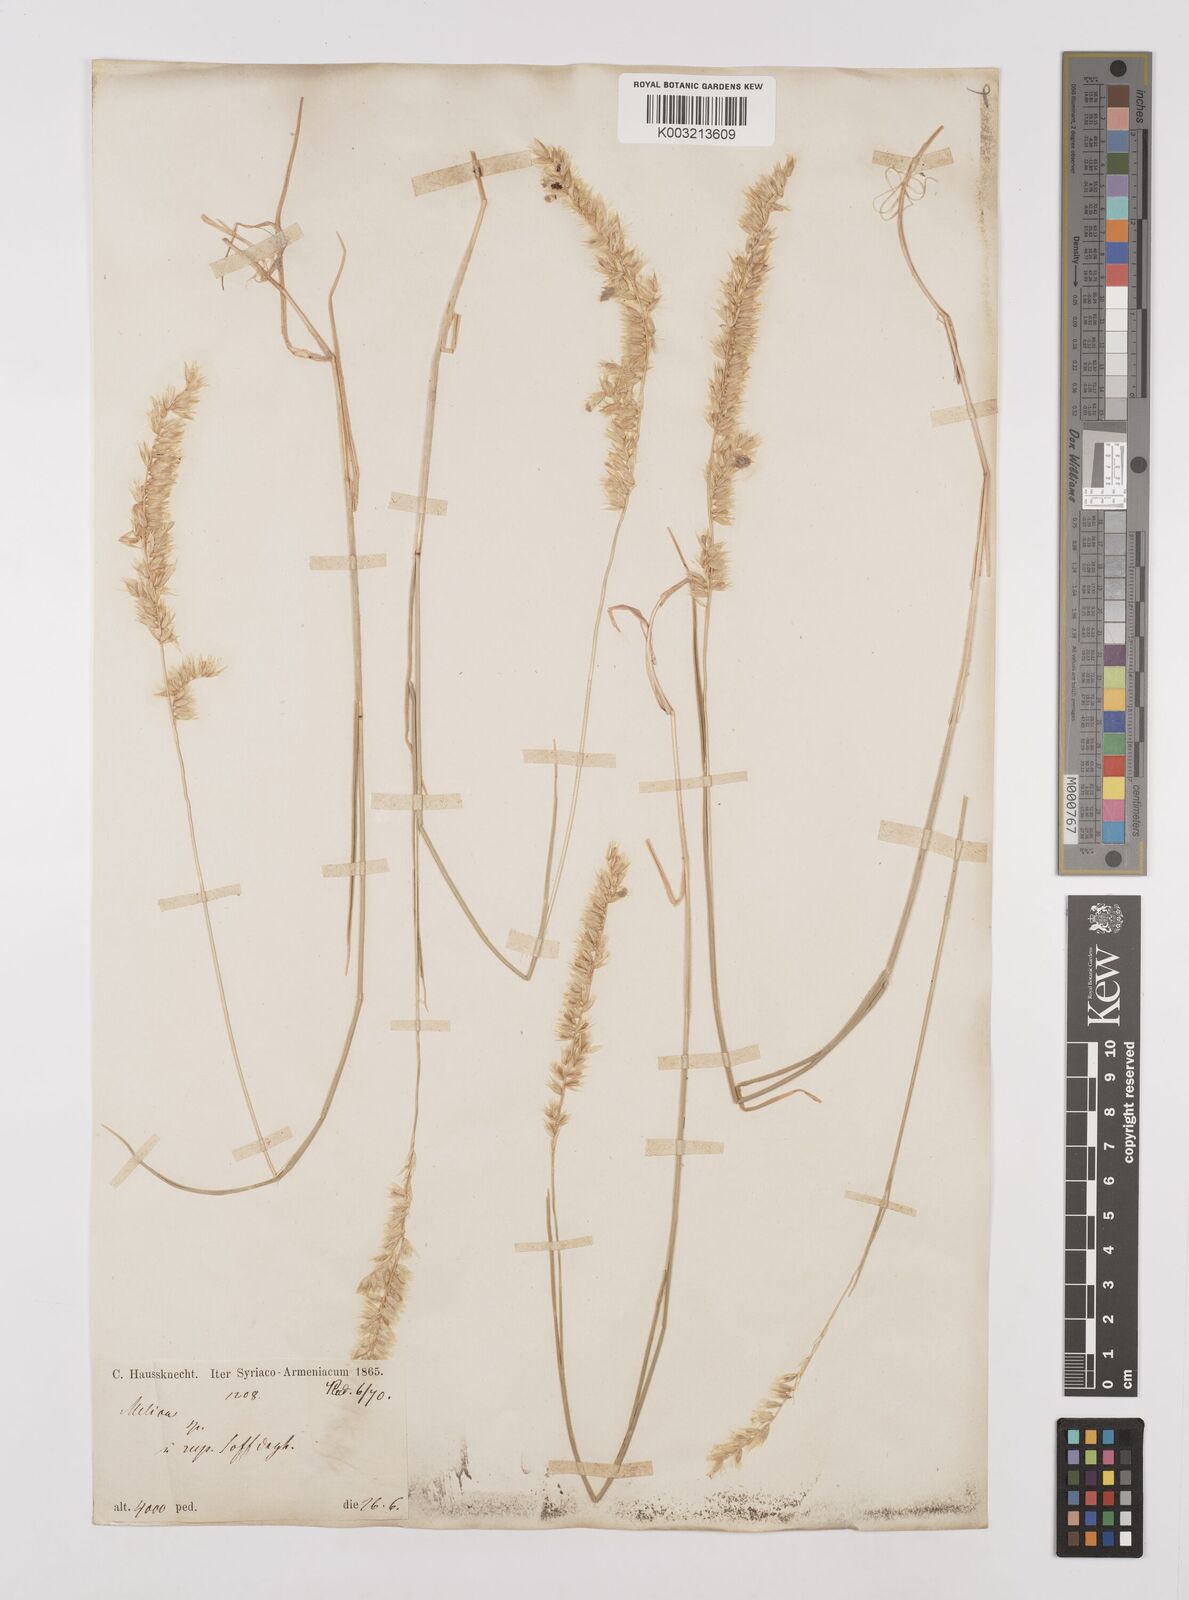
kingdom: Plantae
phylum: Tracheophyta
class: Liliopsida
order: Poales
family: Poaceae
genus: Melica
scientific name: Melica ciliata
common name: Hairy melicgrass
